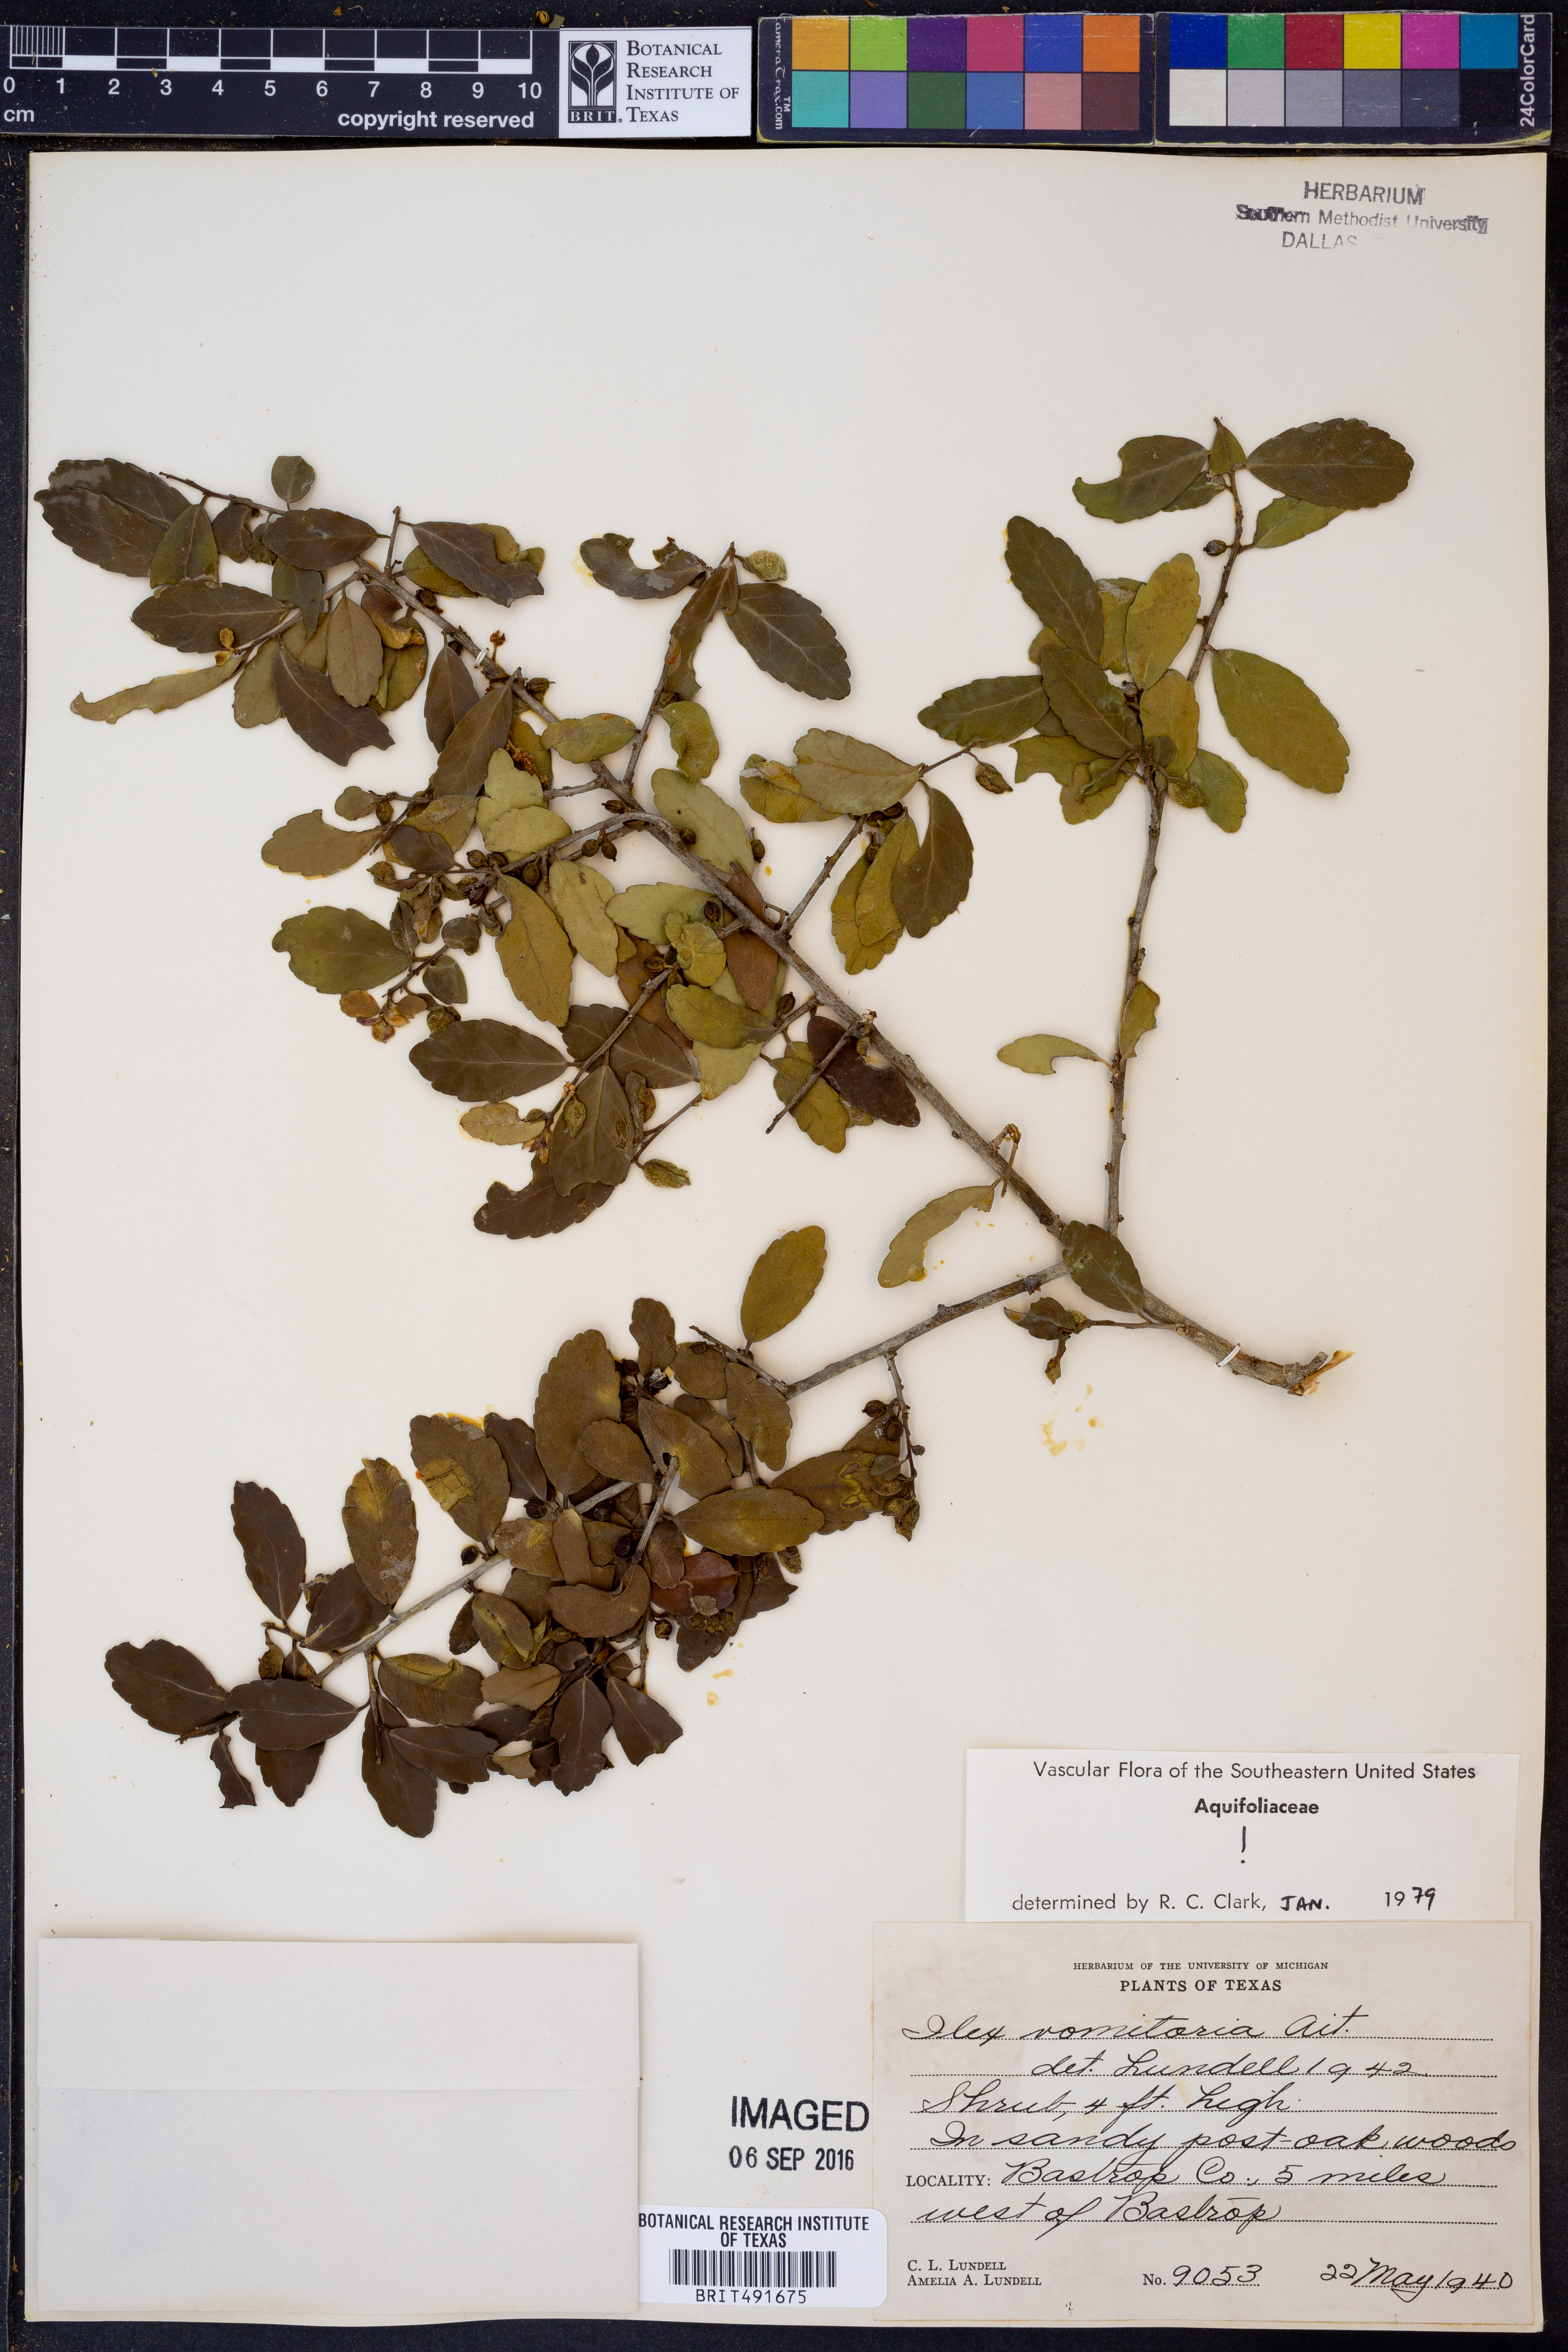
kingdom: Plantae
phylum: Tracheophyta
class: Magnoliopsida
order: Aquifoliales
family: Aquifoliaceae
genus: Ilex
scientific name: Ilex vomitoria
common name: Yaupon holly
